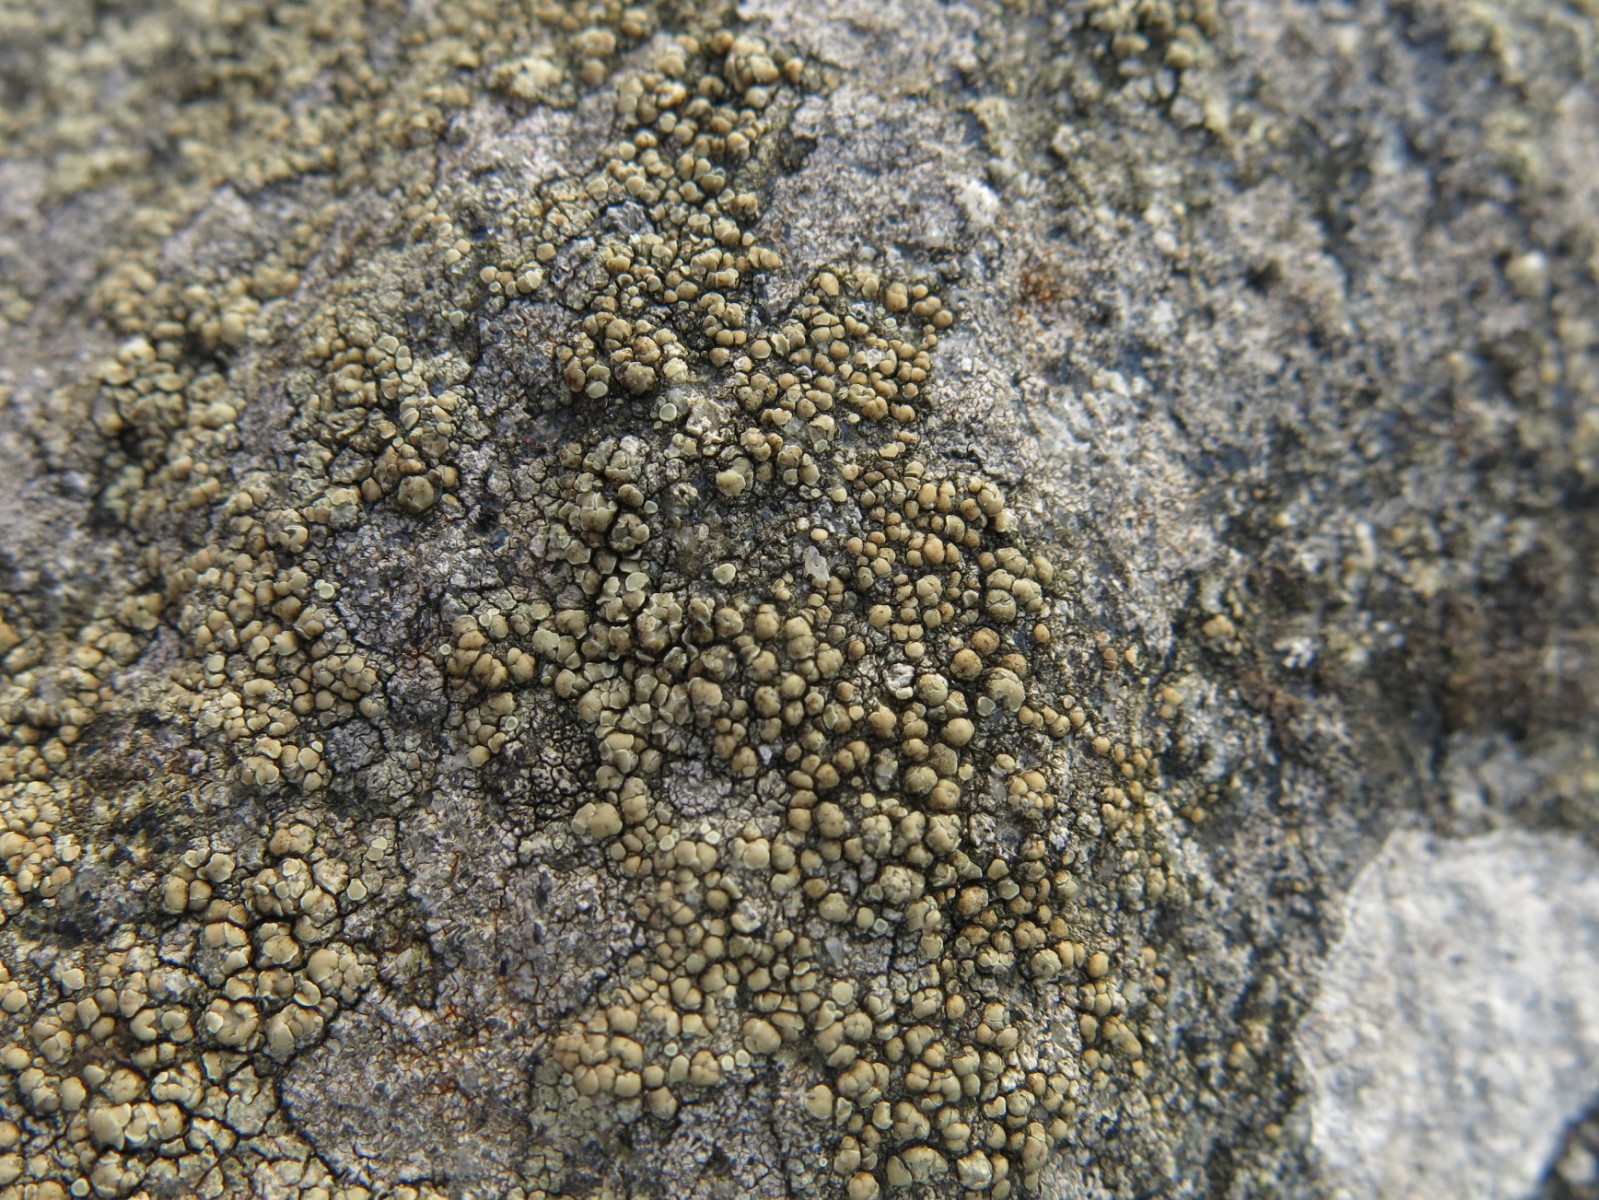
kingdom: Fungi
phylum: Ascomycota
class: Lecanoromycetes
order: Lecanorales
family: Lecanoraceae
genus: Lecanora
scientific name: Lecanora polytropa
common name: bleggrøn kantskivelav
